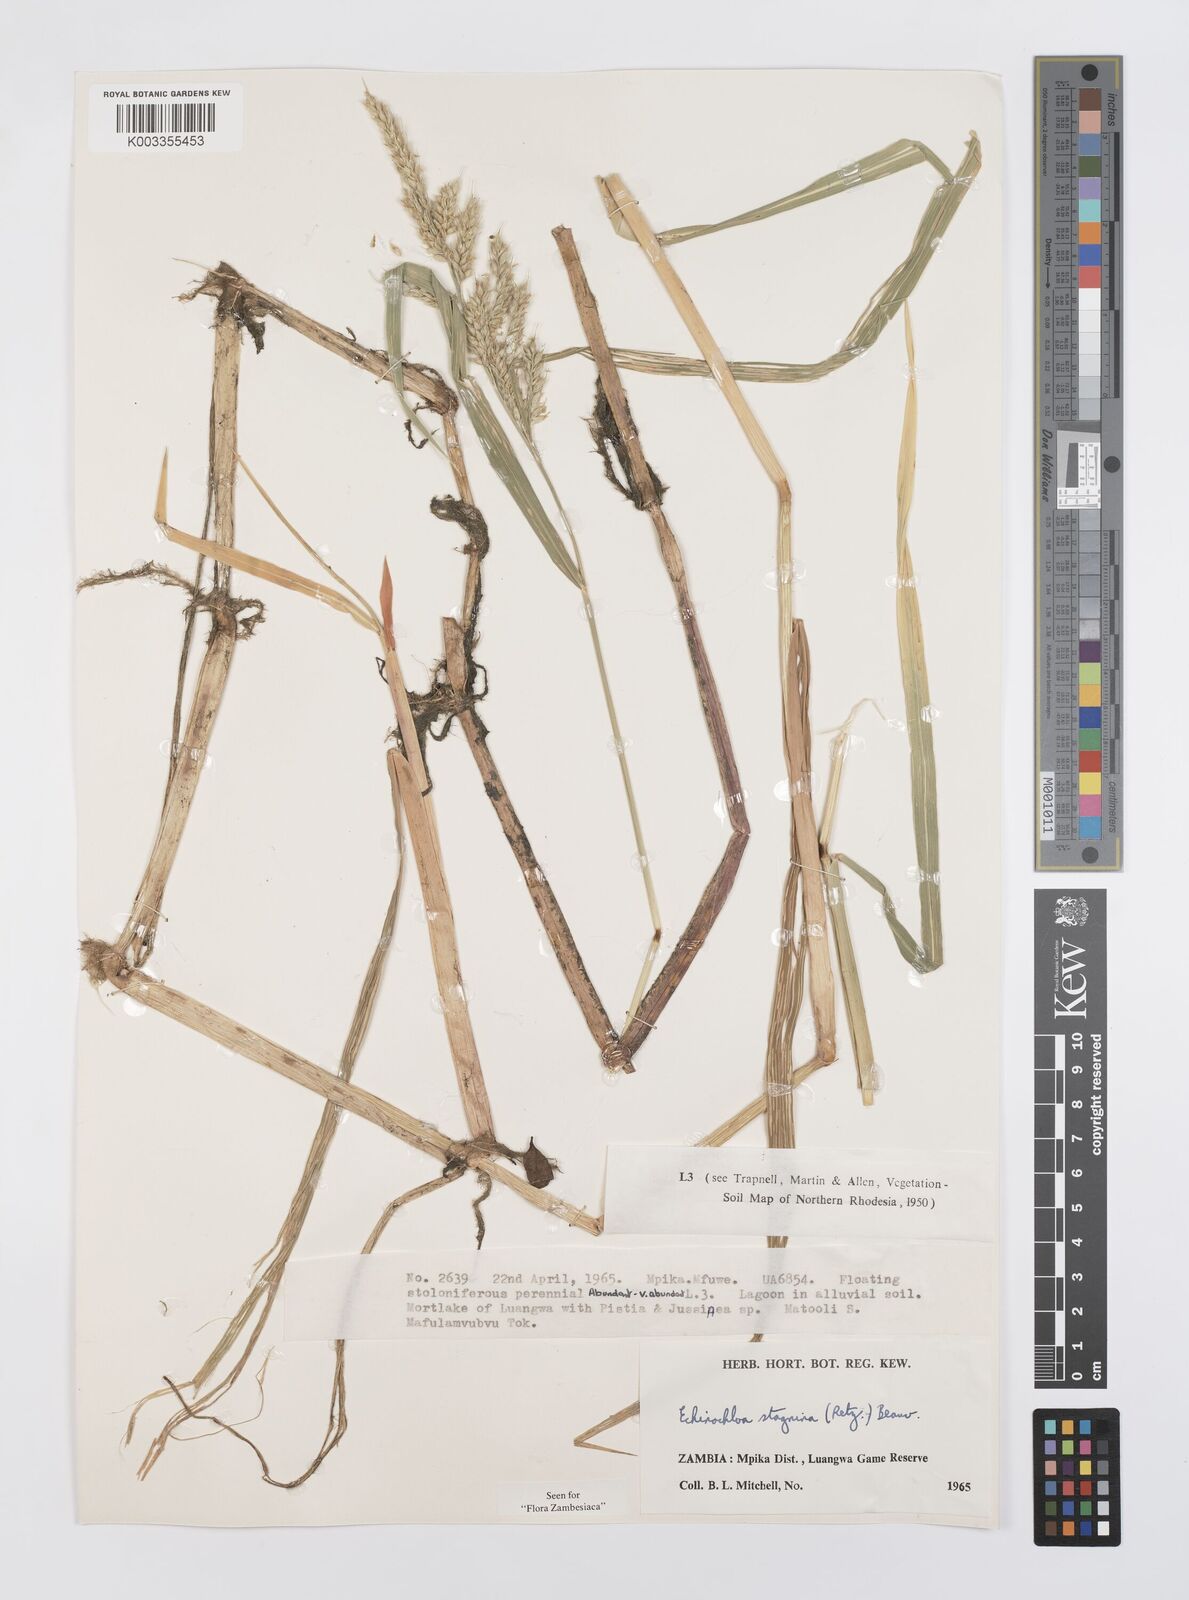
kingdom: Plantae
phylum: Tracheophyta
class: Liliopsida
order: Poales
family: Poaceae
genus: Echinochloa
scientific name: Echinochloa stagnina
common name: Burgu grass
